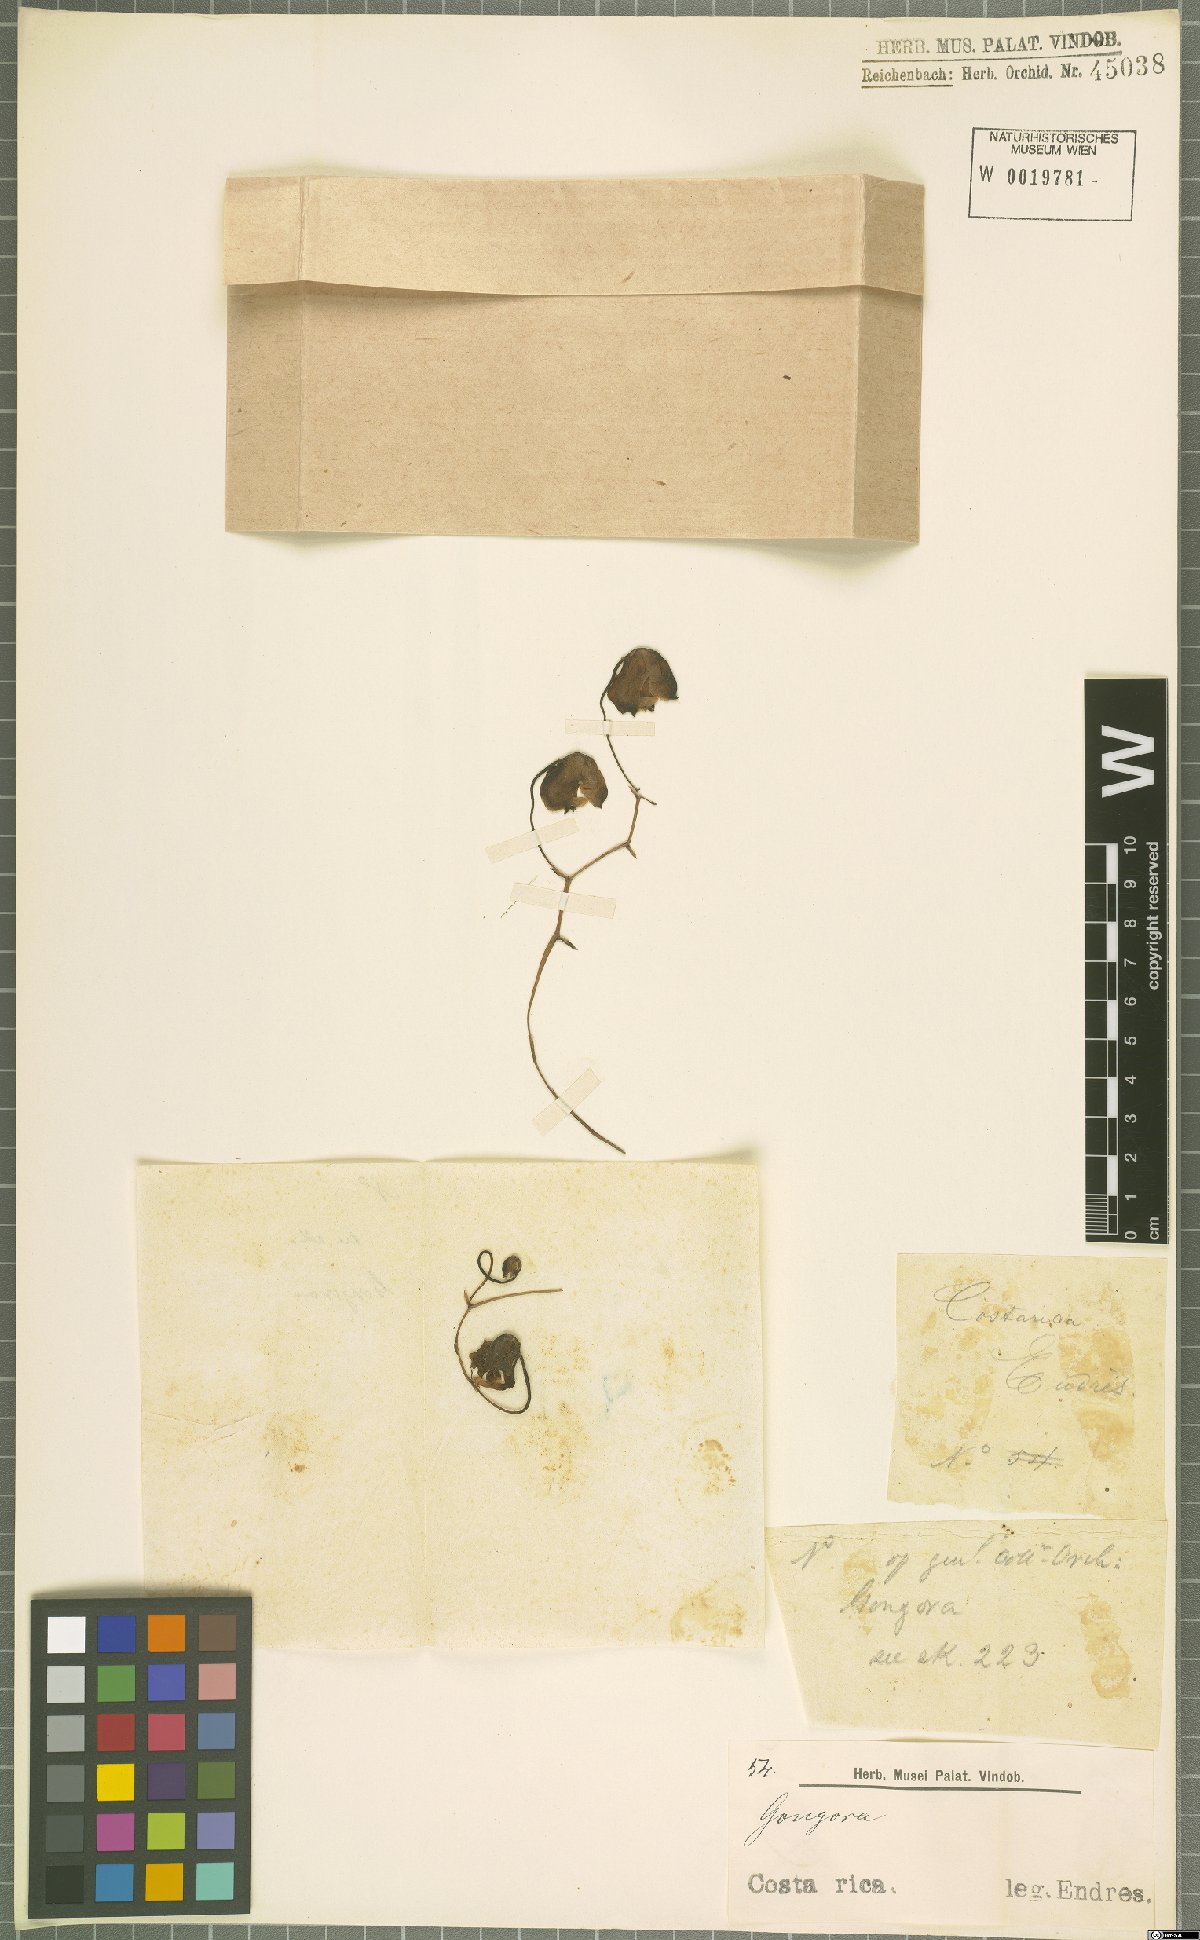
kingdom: Plantae
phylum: Tracheophyta
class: Liliopsida
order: Asparagales
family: Orchidaceae
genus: Gongora
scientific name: Gongora
